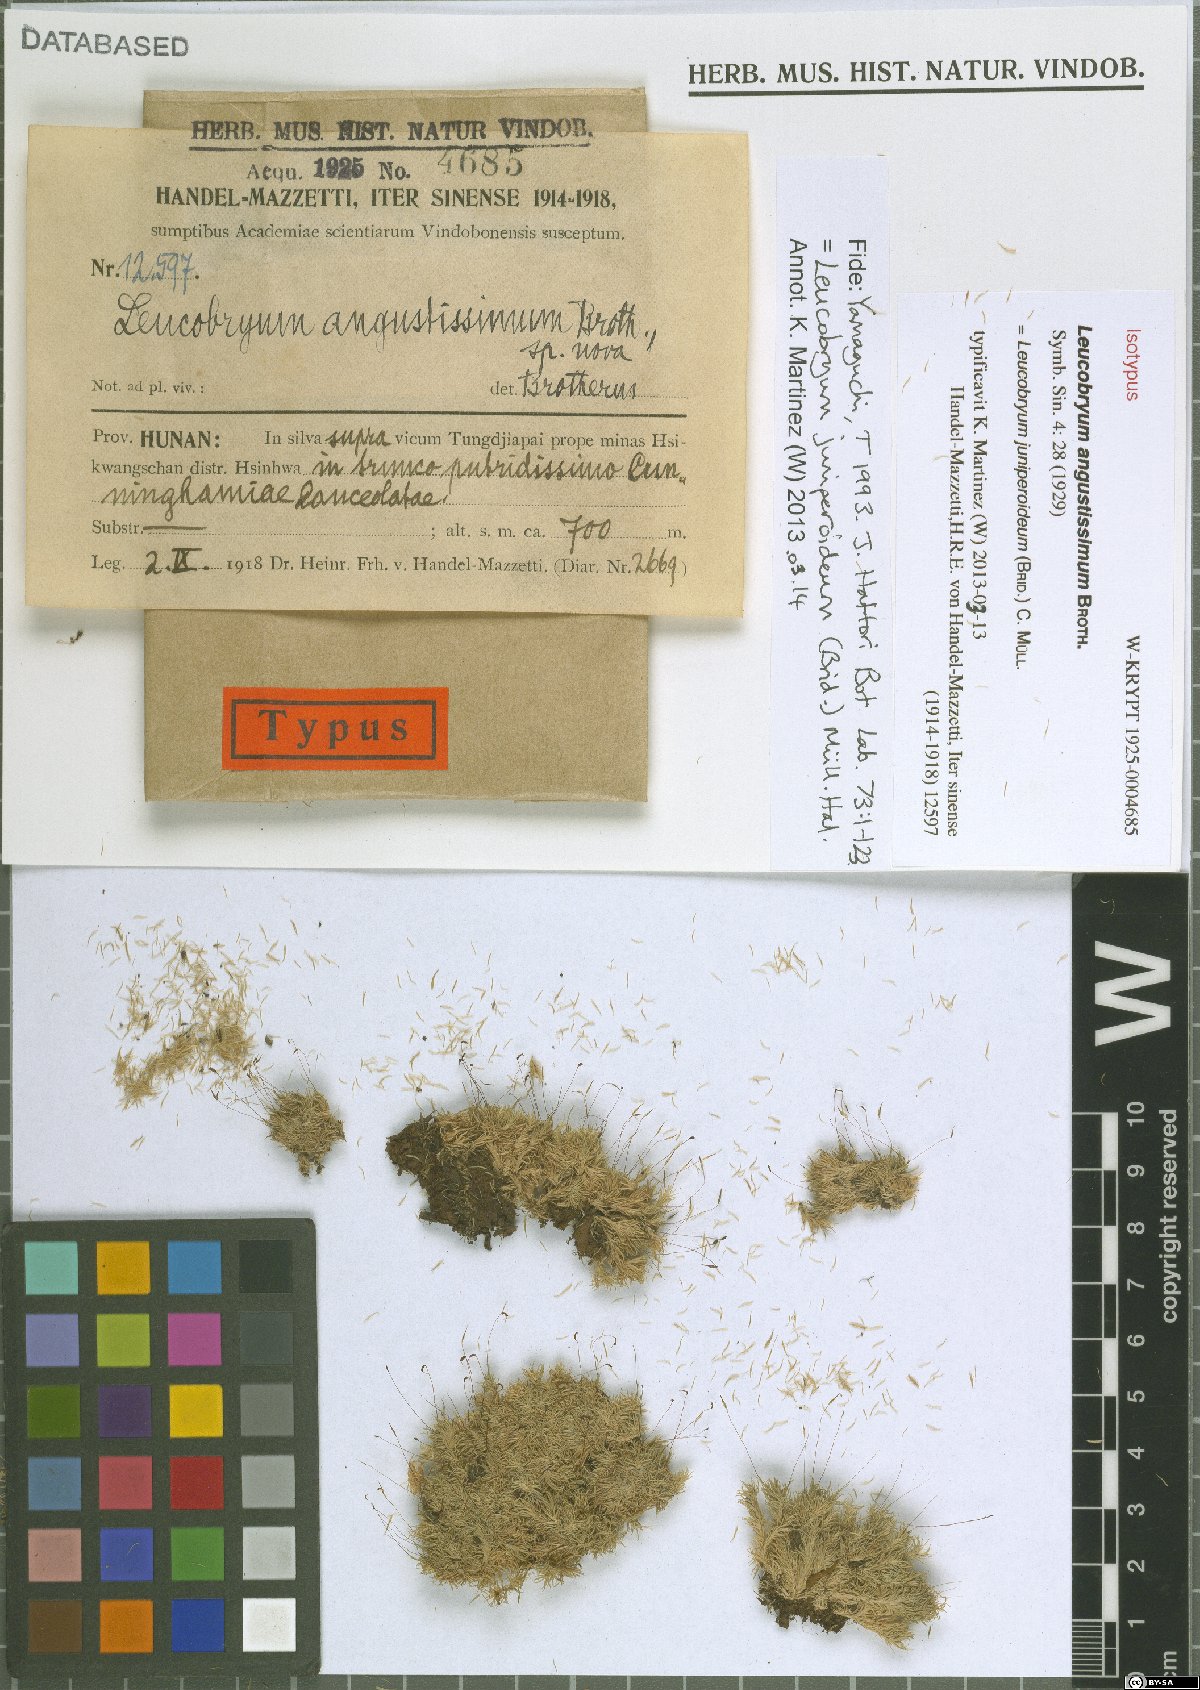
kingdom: Plantae
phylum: Bryophyta
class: Bryopsida
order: Dicranales
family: Leucobryaceae
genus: Leucobryum
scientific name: Leucobryum juniperoideum
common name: Smaller white-moss
